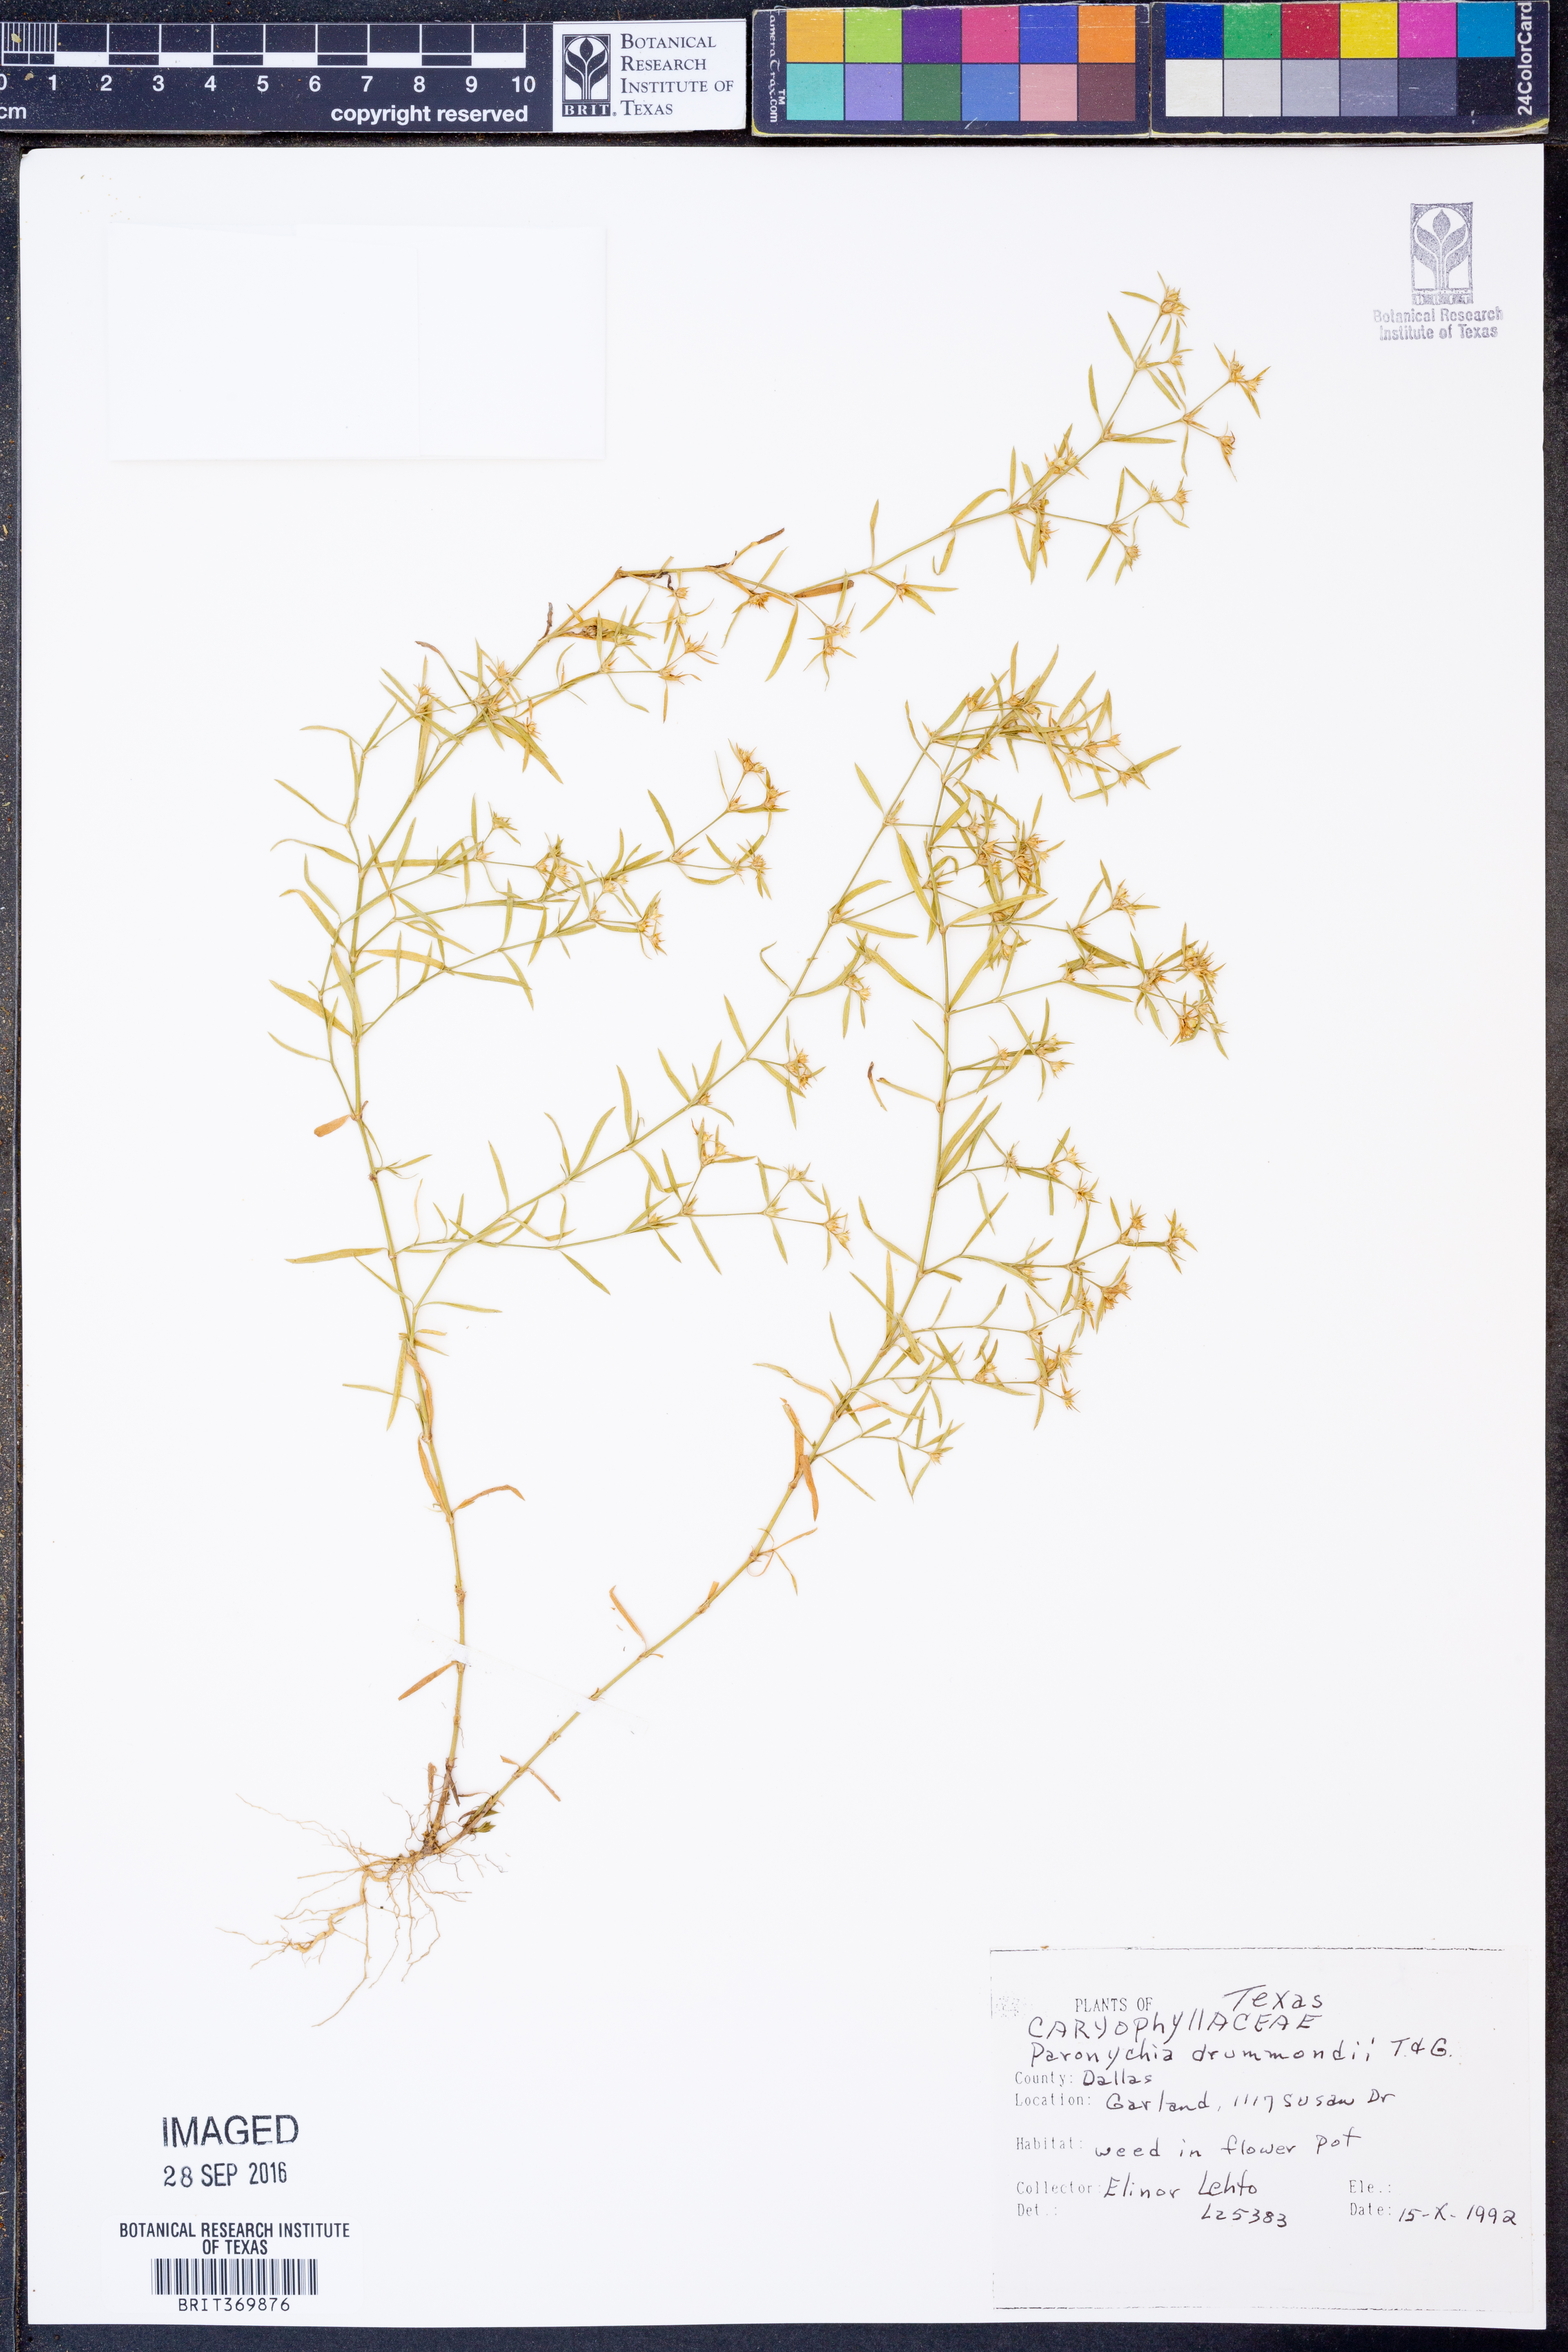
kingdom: Plantae
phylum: Tracheophyta
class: Magnoliopsida
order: Caryophyllales
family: Caryophyllaceae
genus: Paronychia
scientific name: Paronychia drummondii
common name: Drummond's nailwort
